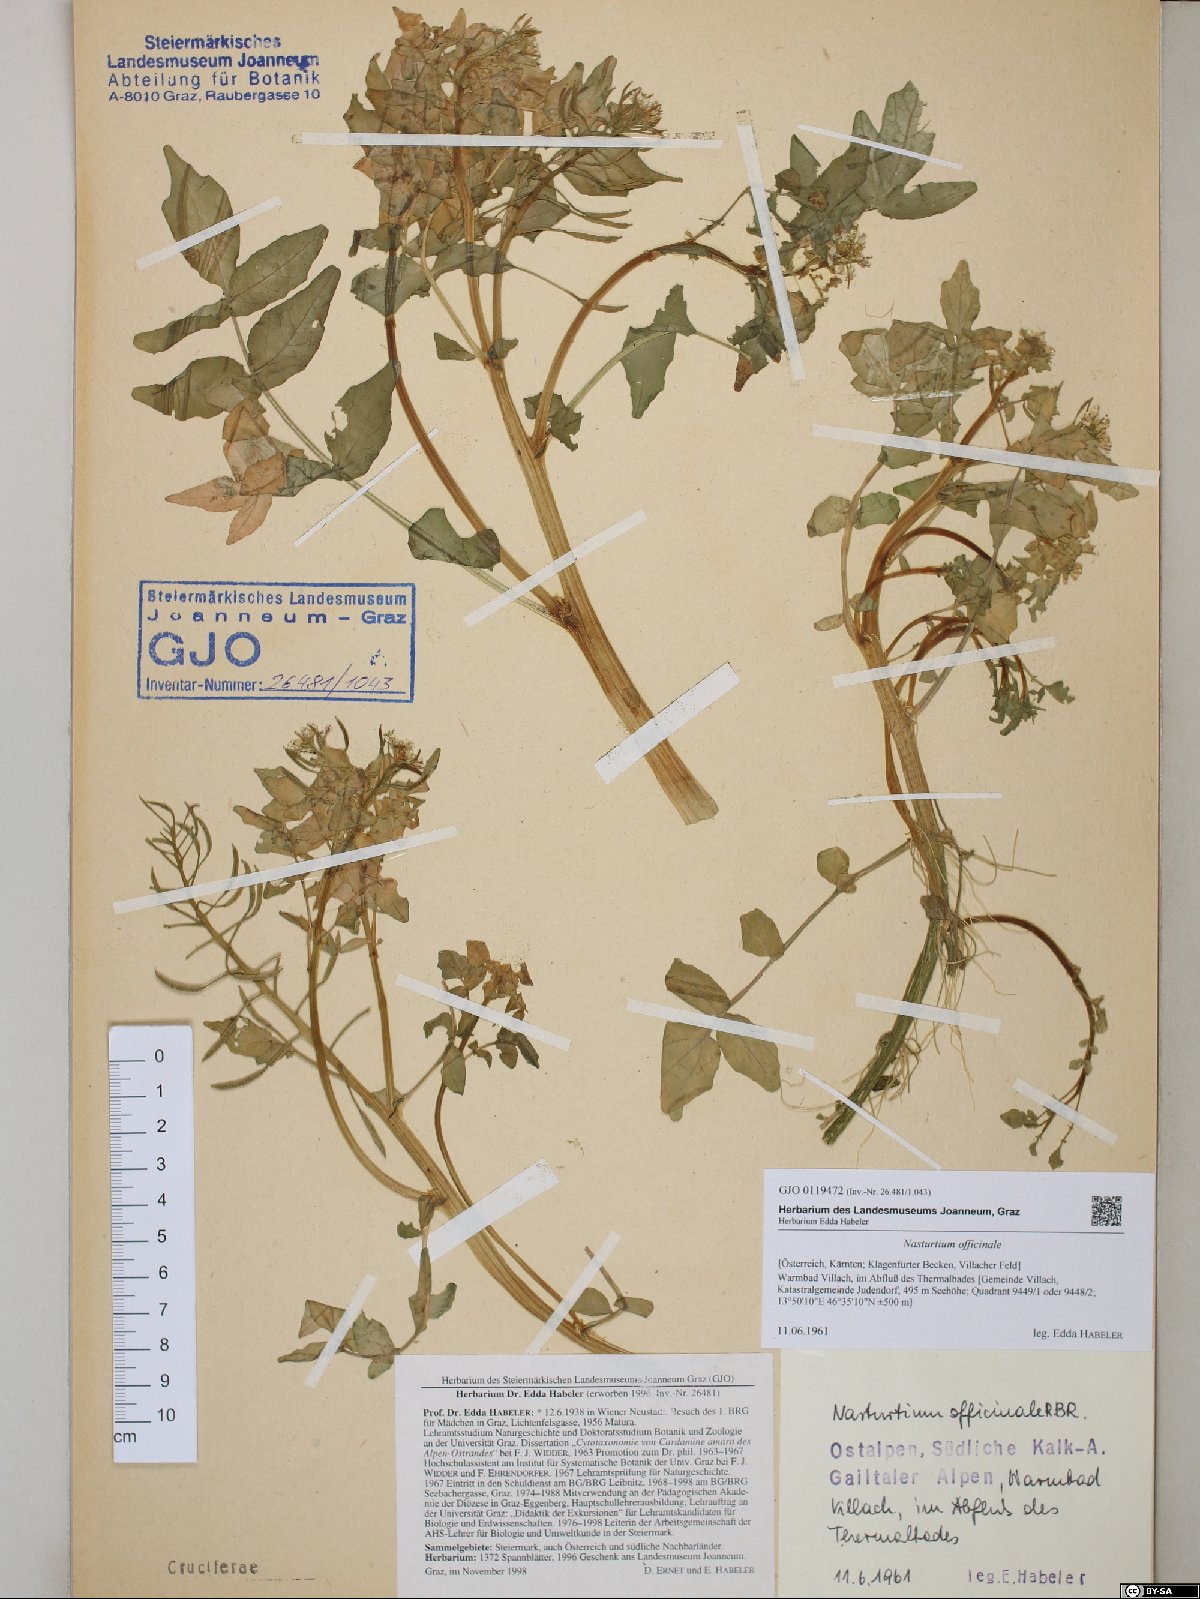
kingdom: Plantae
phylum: Tracheophyta
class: Magnoliopsida
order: Brassicales
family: Brassicaceae
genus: Nasturtium
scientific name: Nasturtium officinale
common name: Watercress
